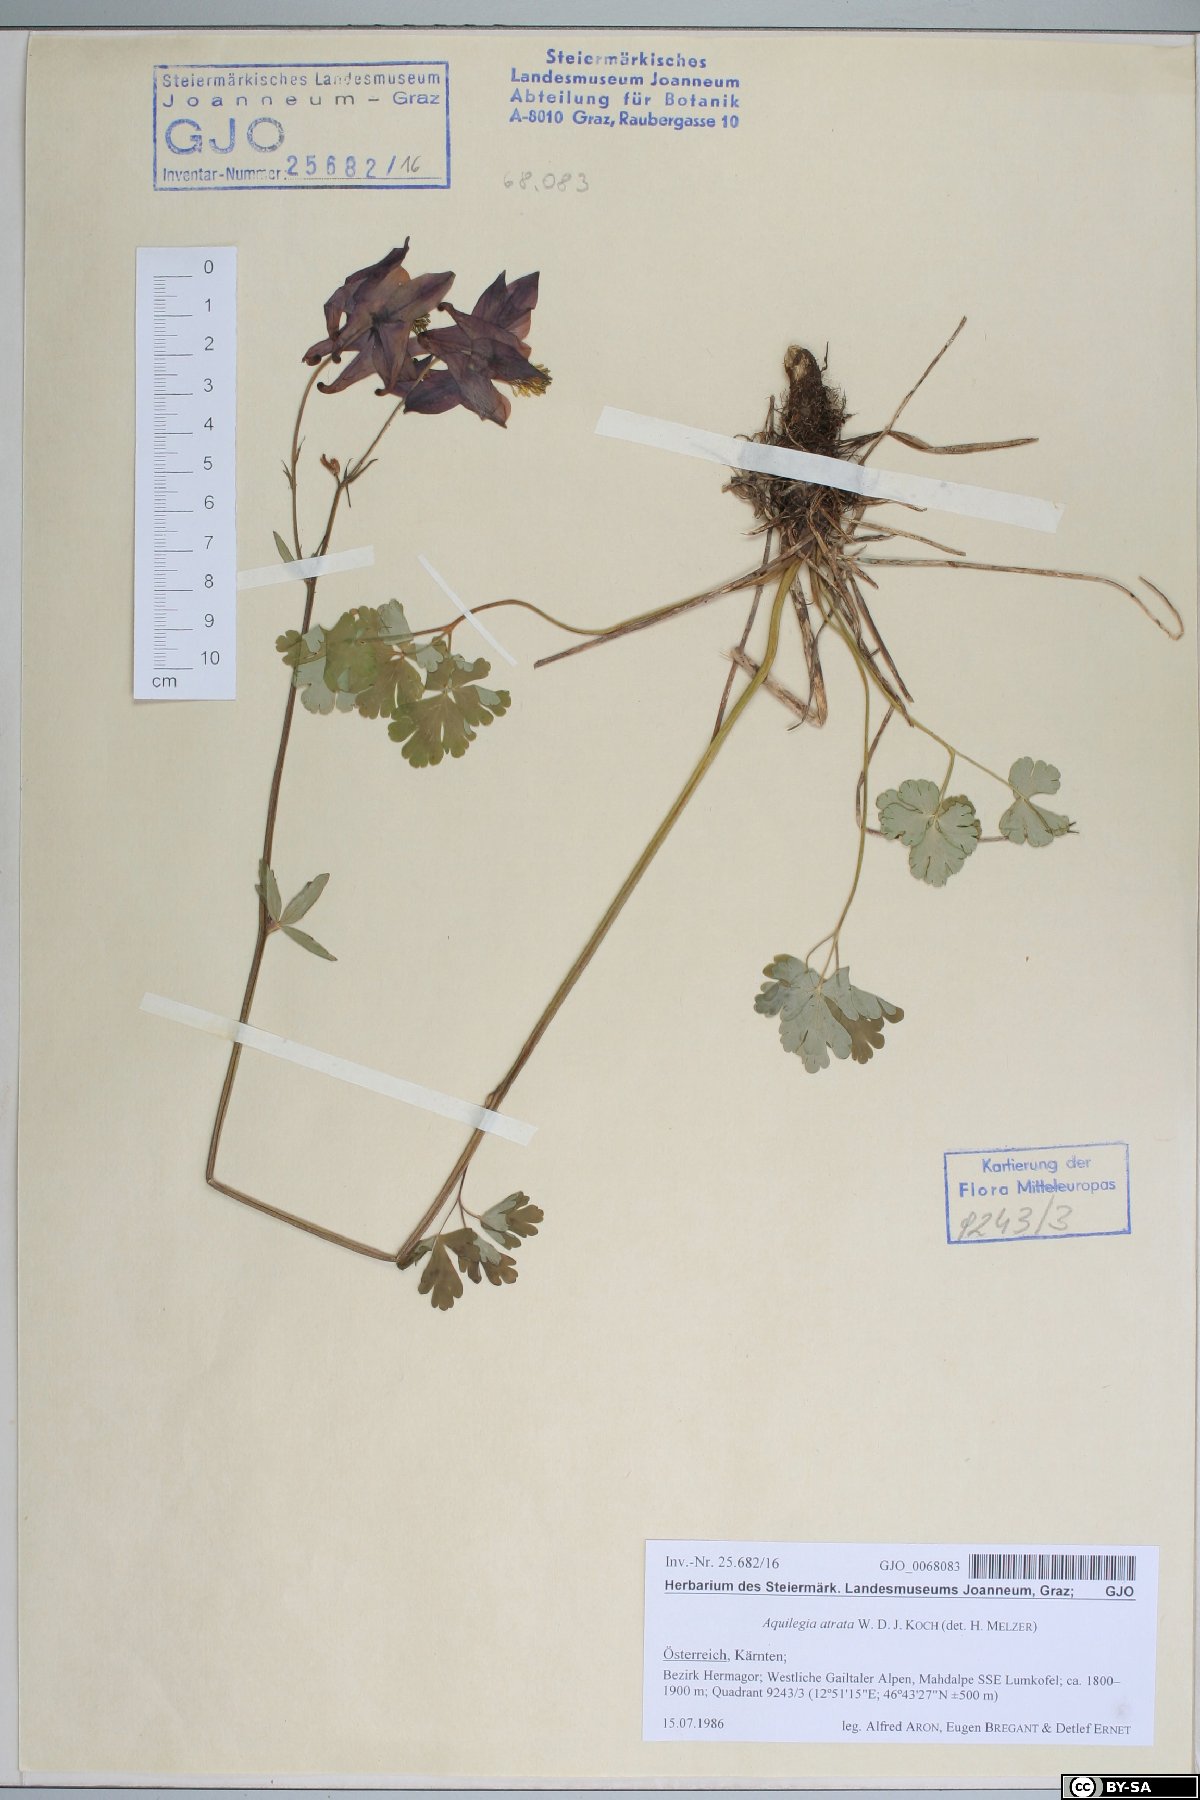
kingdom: Plantae
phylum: Tracheophyta
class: Magnoliopsida
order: Ranunculales
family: Ranunculaceae
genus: Aquilegia
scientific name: Aquilegia atrata
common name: Dark columbine
